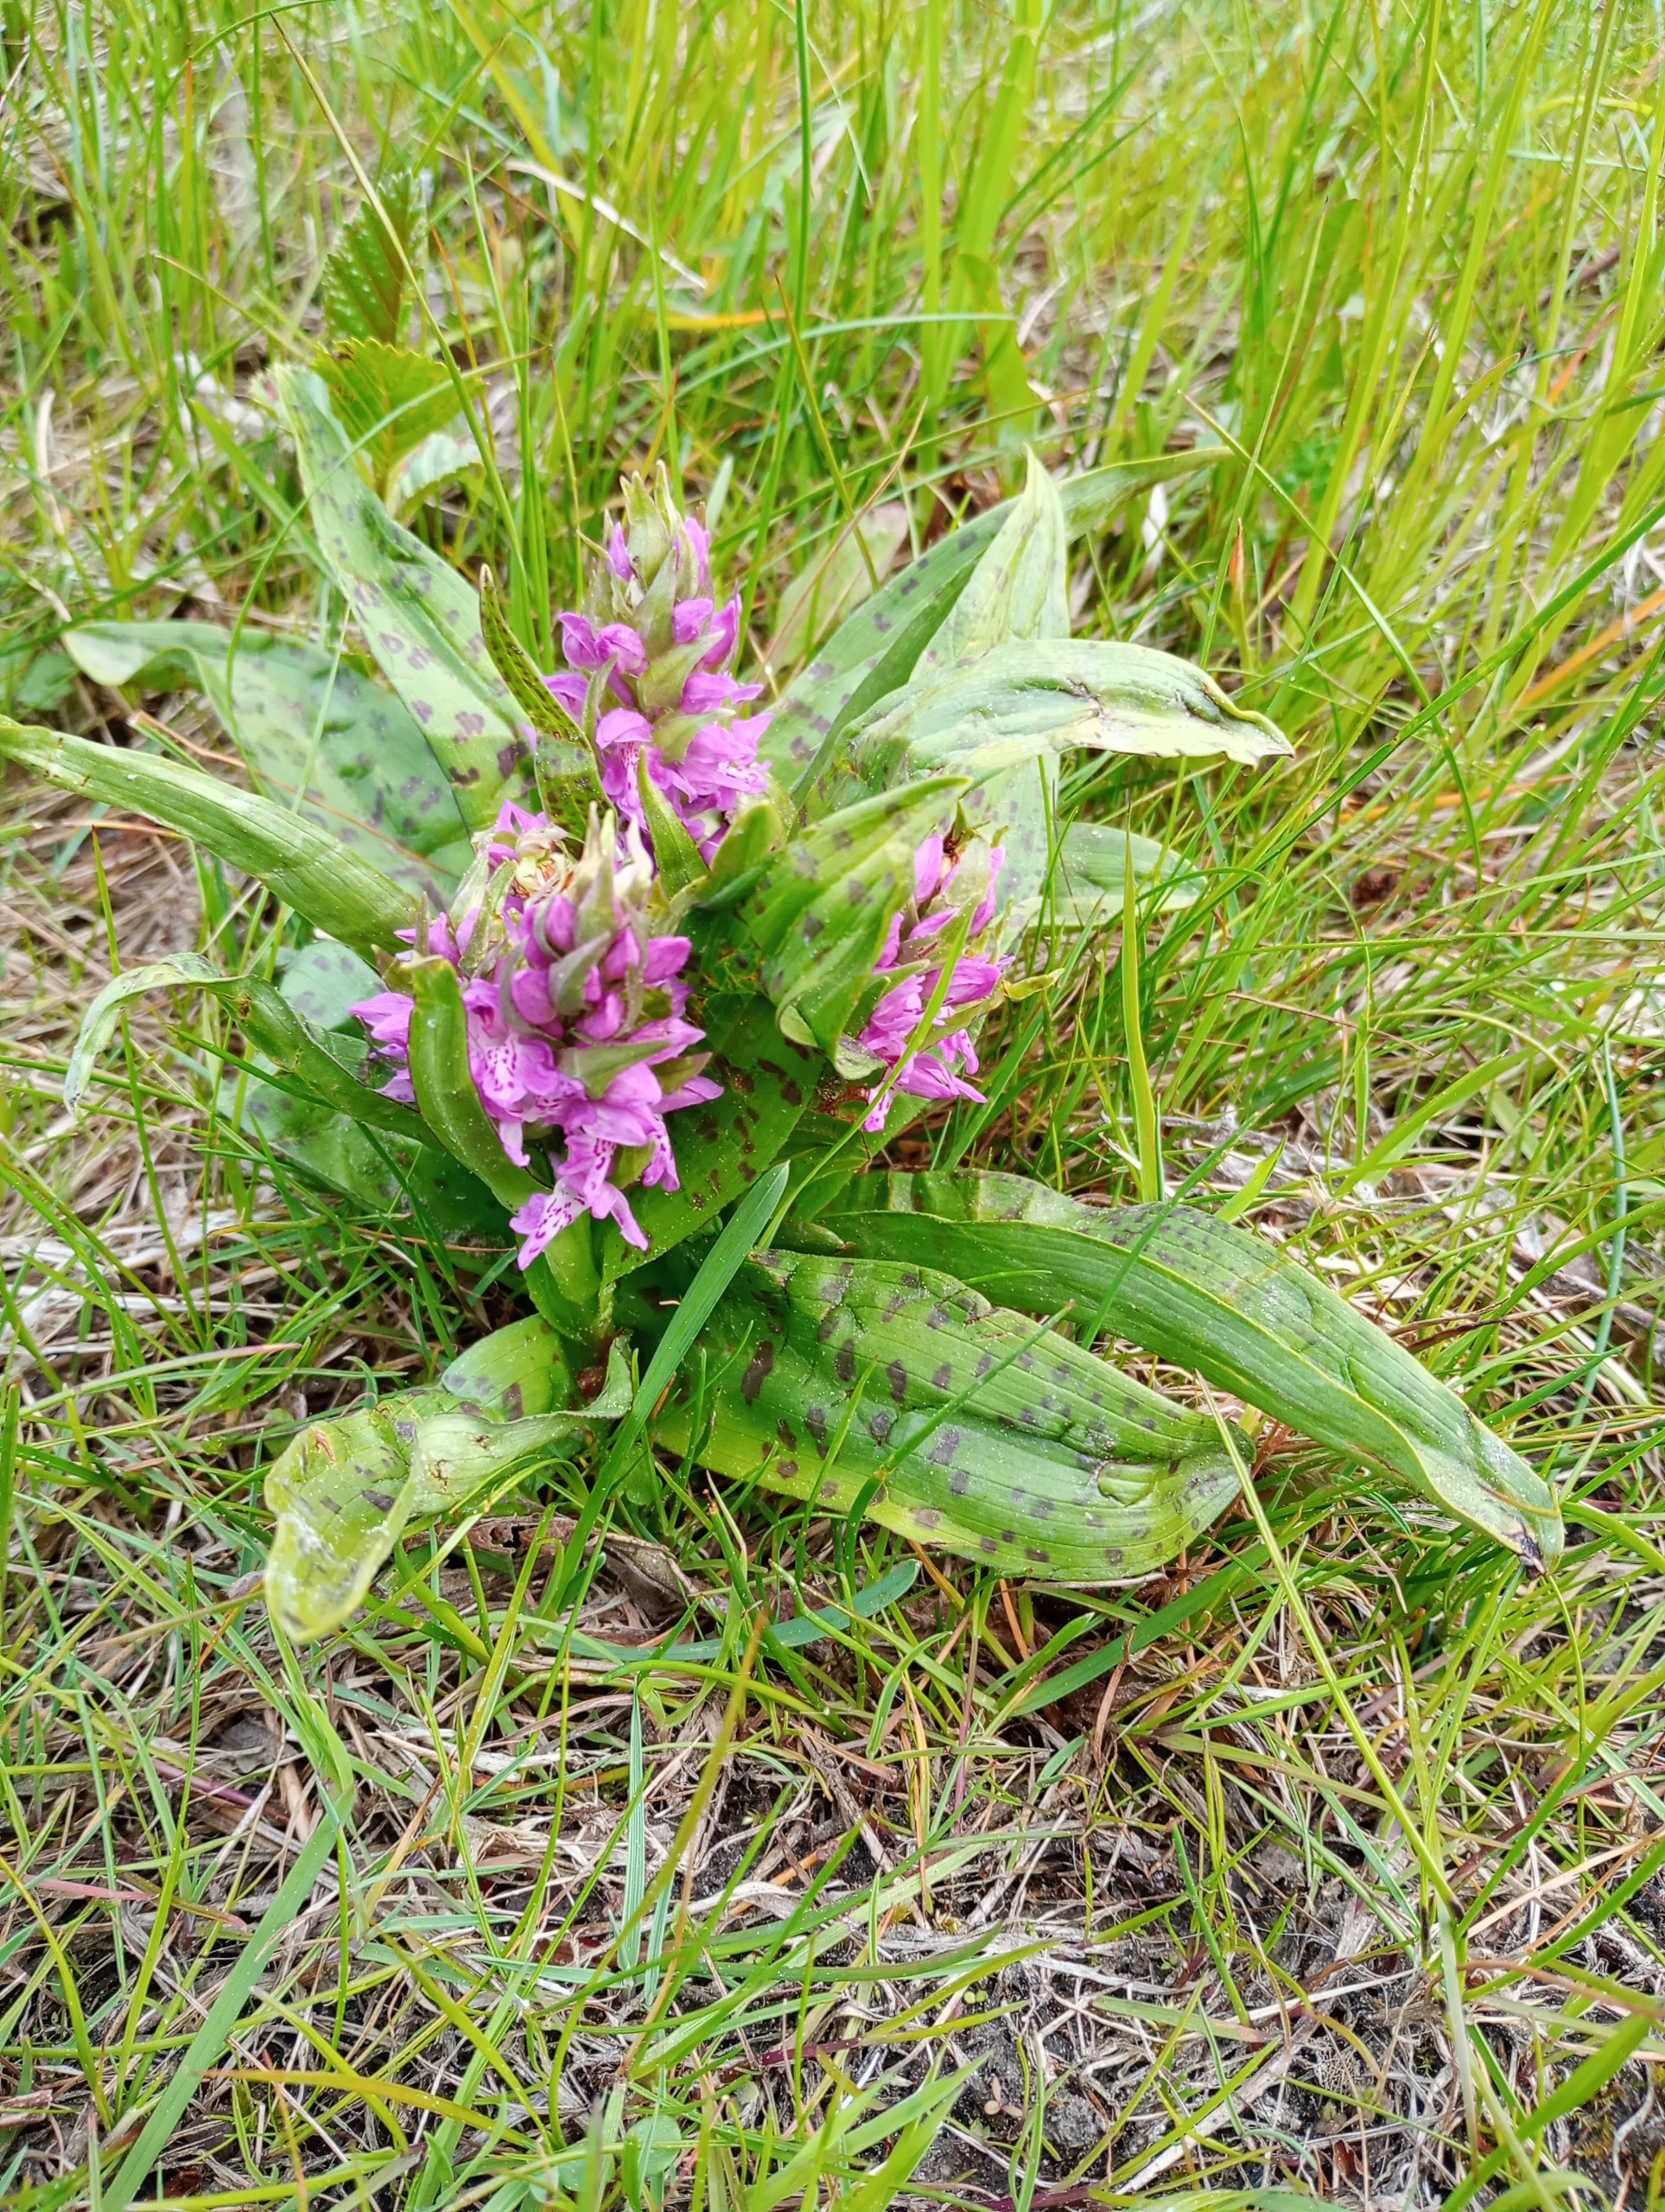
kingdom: Plantae
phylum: Tracheophyta
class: Liliopsida
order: Asparagales
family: Orchidaceae
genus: Dactylorhiza
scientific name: Dactylorhiza majalis
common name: Maj-gøgeurt
